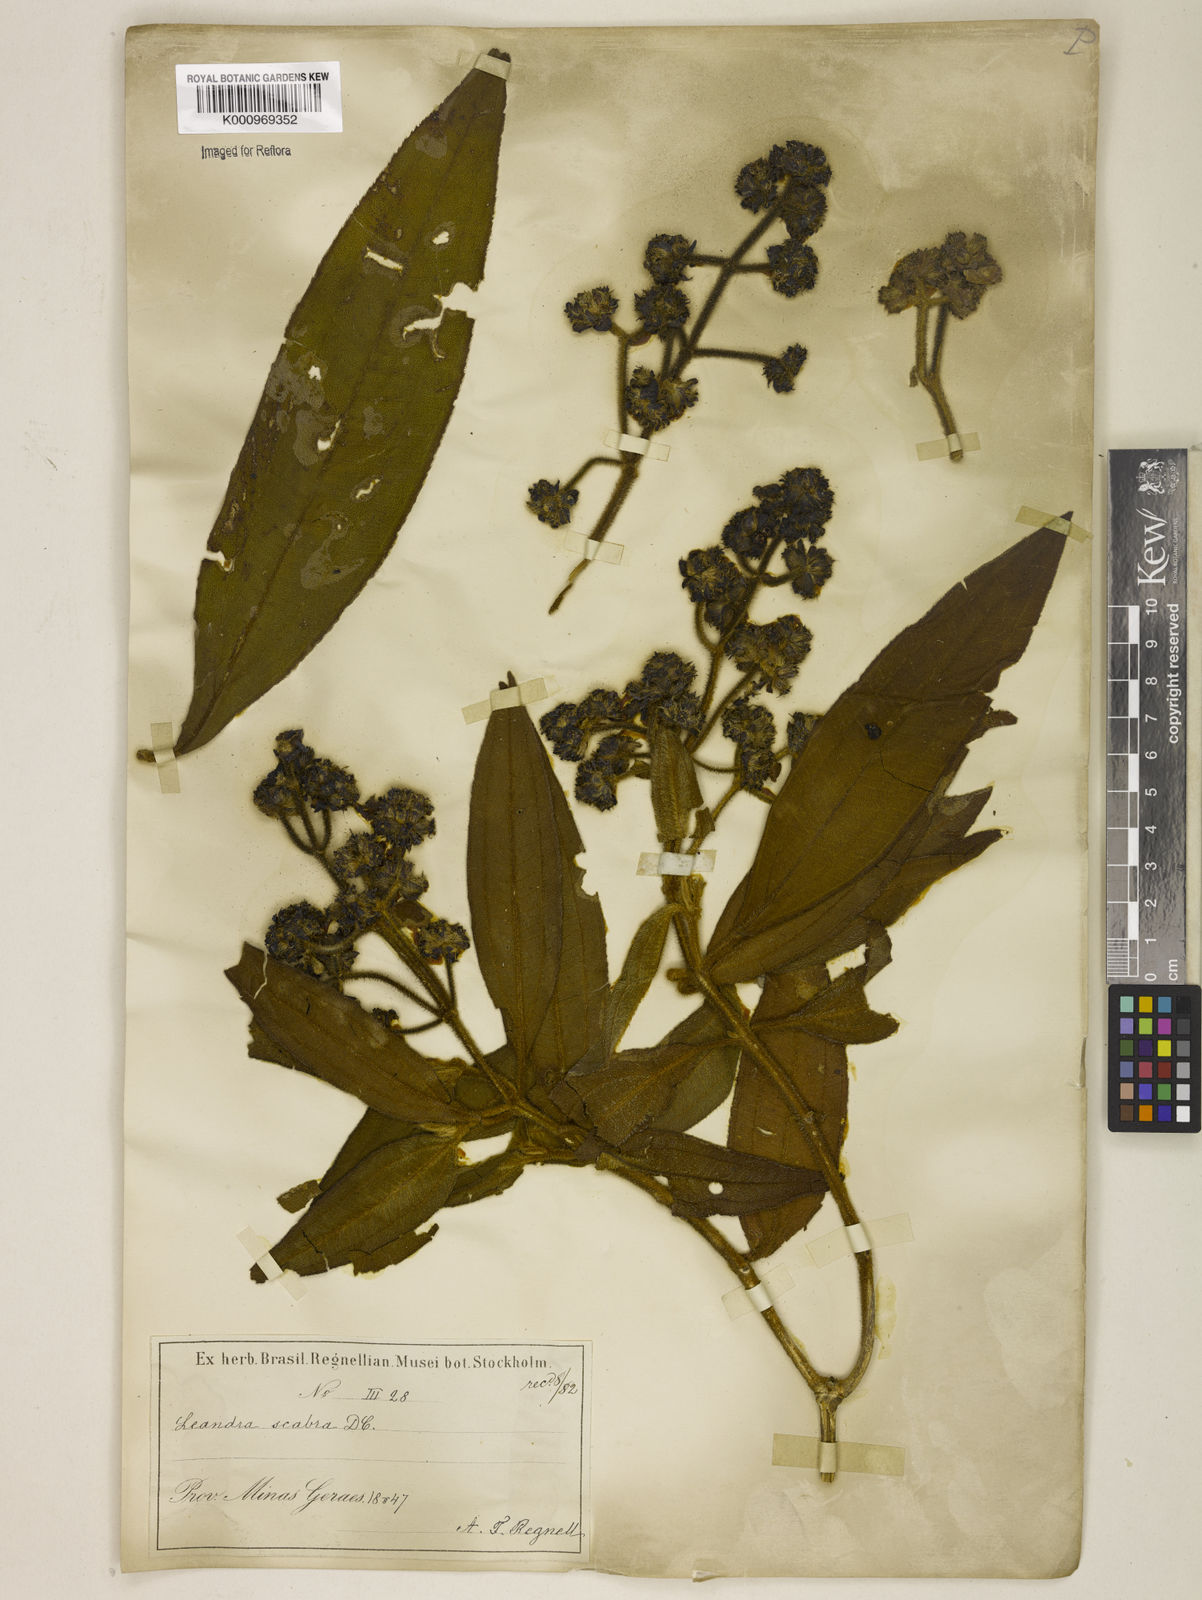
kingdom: Plantae
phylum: Tracheophyta
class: Magnoliopsida
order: Myrtales
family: Melastomataceae
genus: Miconia
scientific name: Miconia melastomoides
